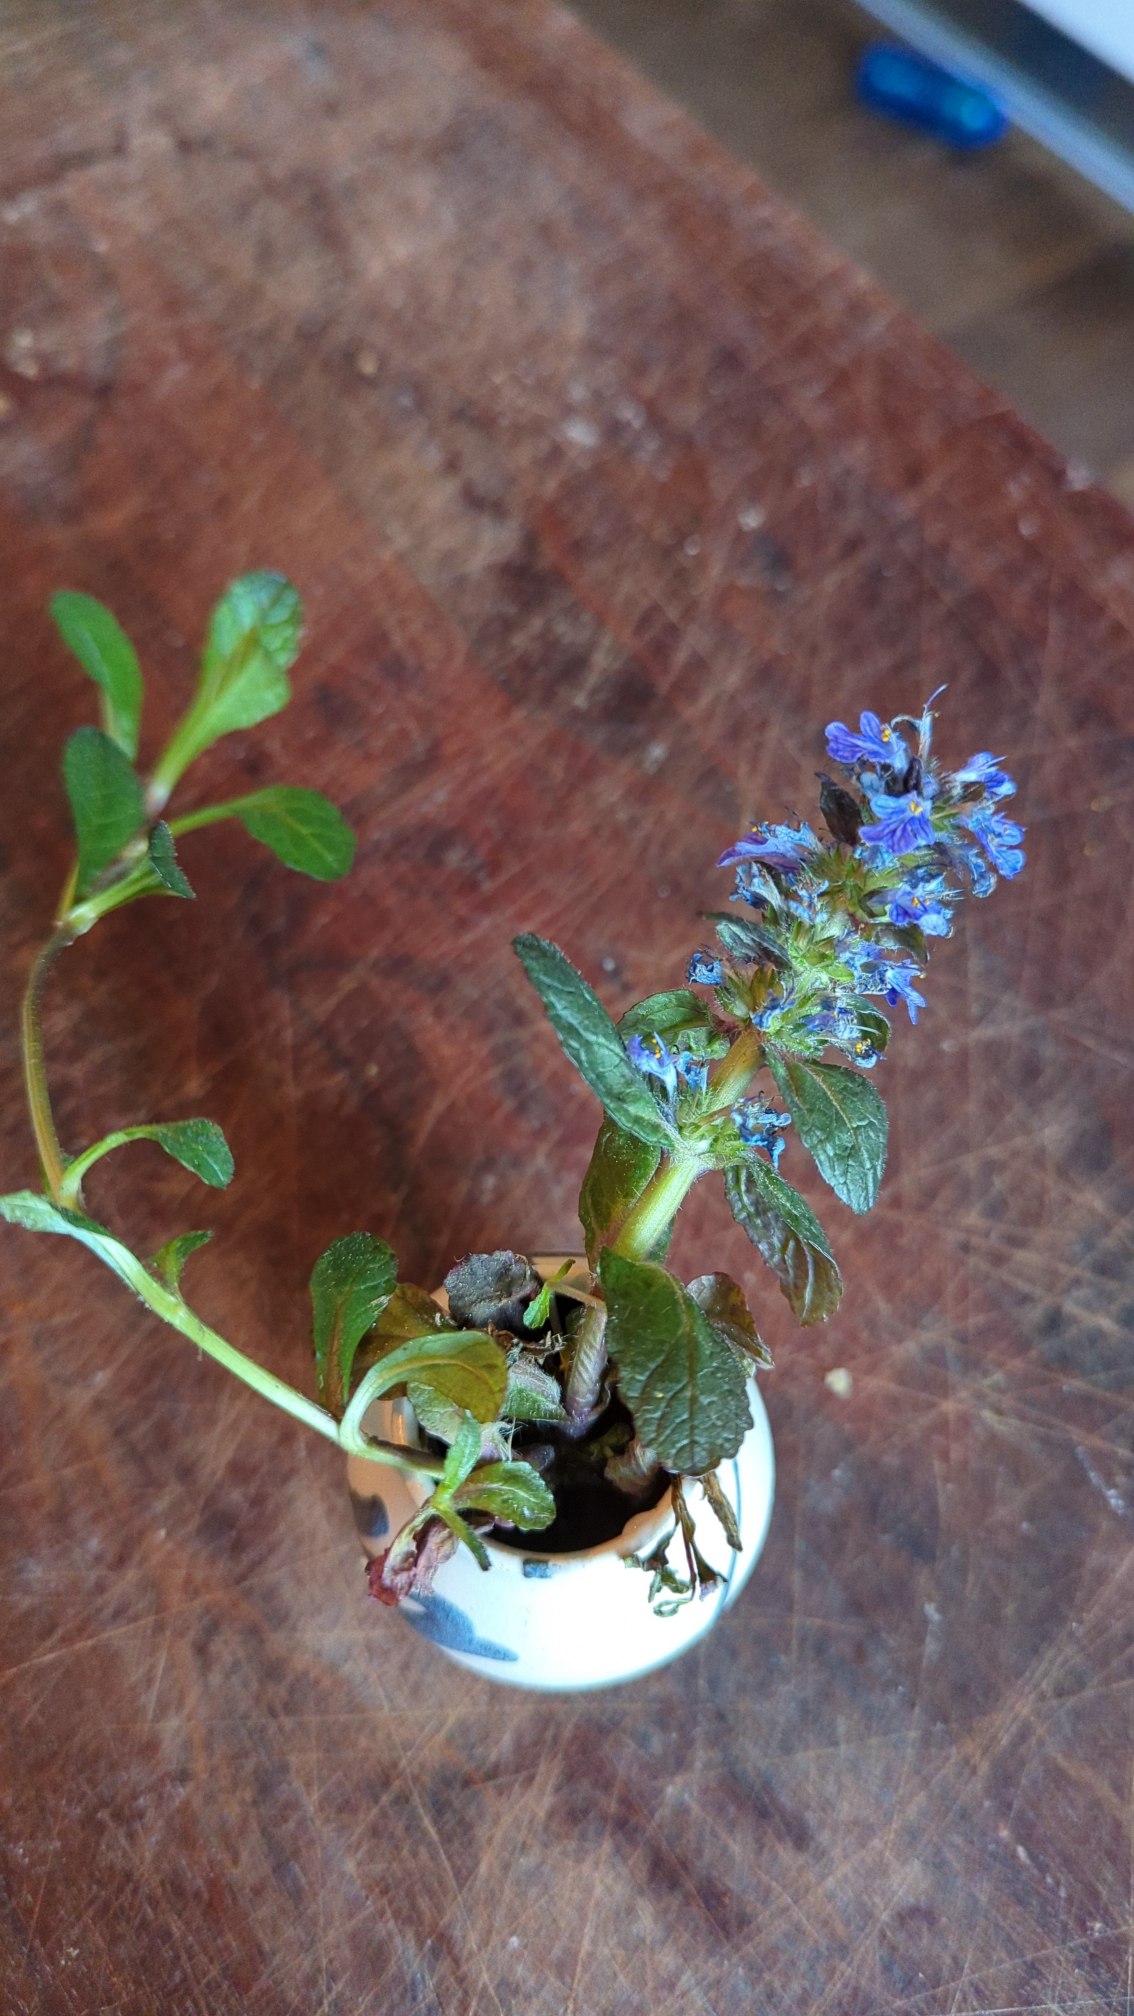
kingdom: Plantae
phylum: Tracheophyta
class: Magnoliopsida
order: Lamiales
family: Lamiaceae
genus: Ajuga
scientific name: Ajuga reptans
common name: Krybende læbeløs
